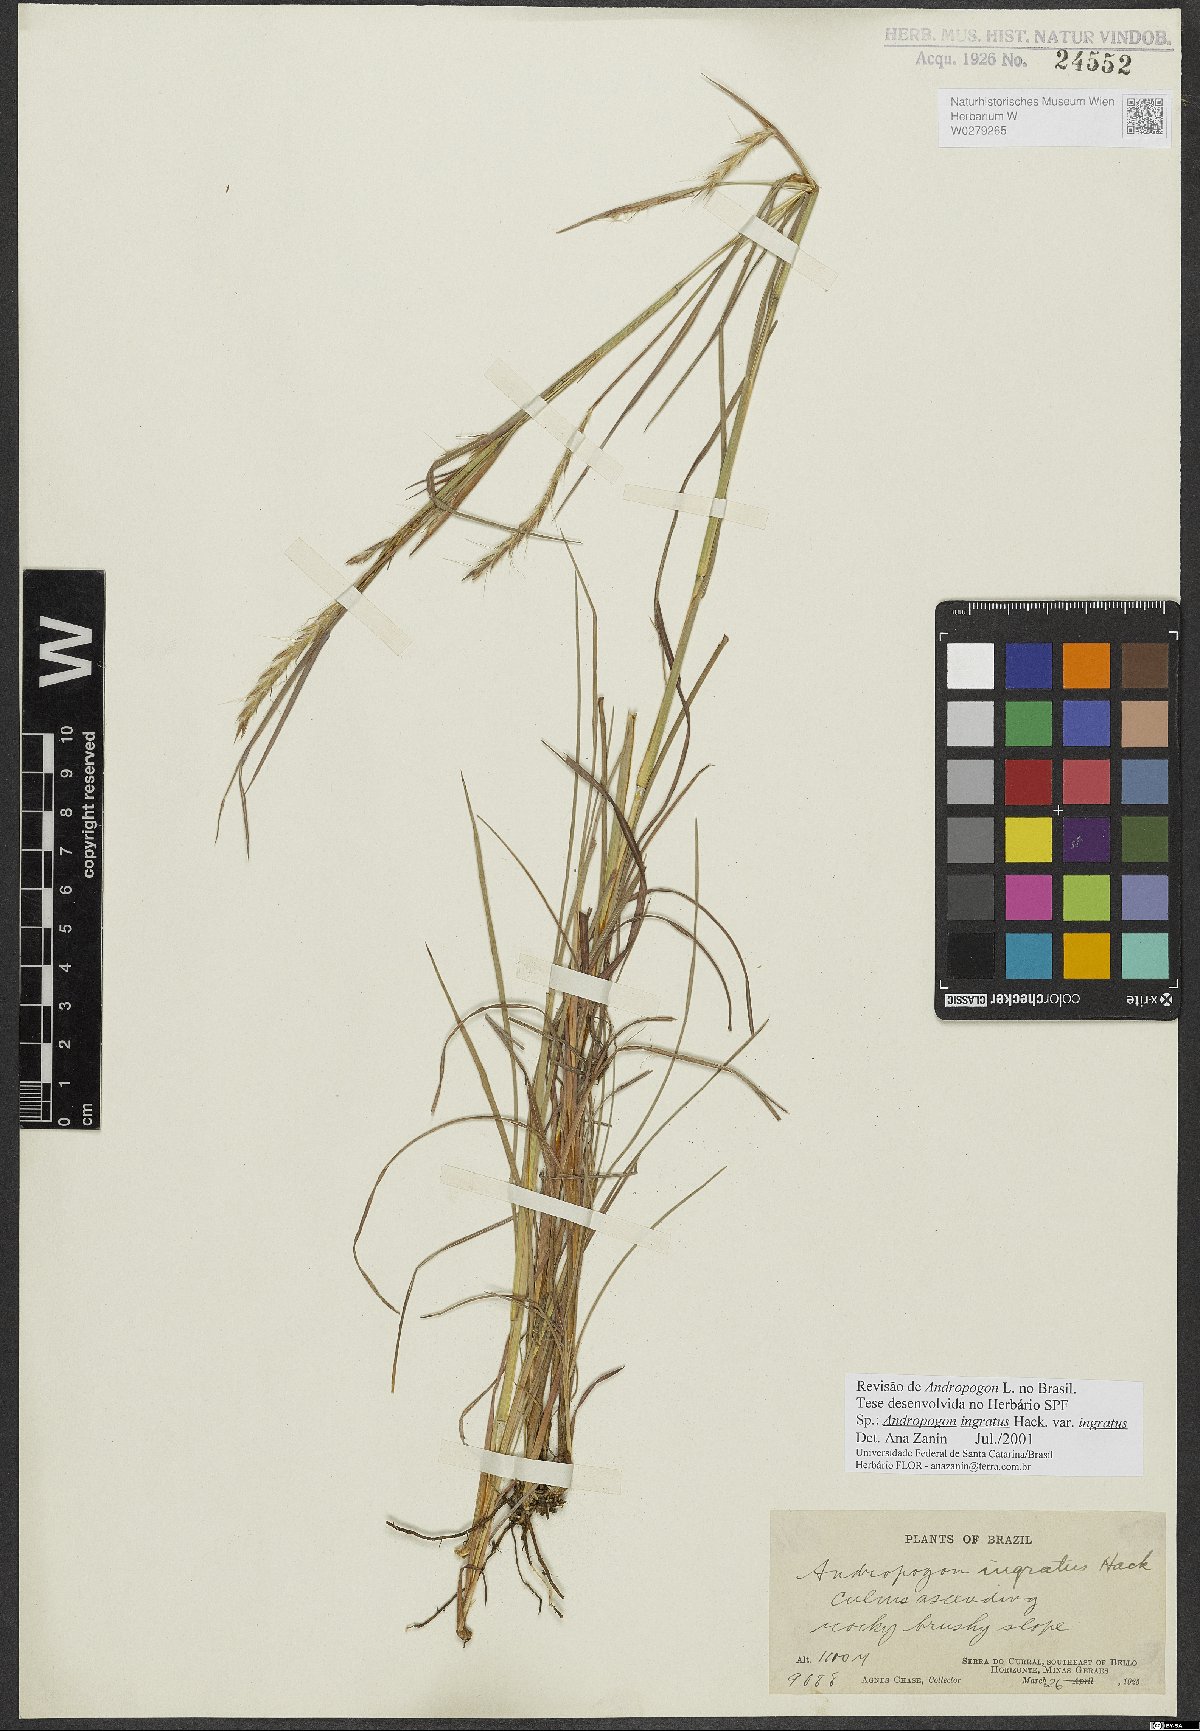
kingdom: Plantae
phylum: Tracheophyta
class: Liliopsida
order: Poales
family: Poaceae
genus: Andropogon
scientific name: Andropogon ingratus
